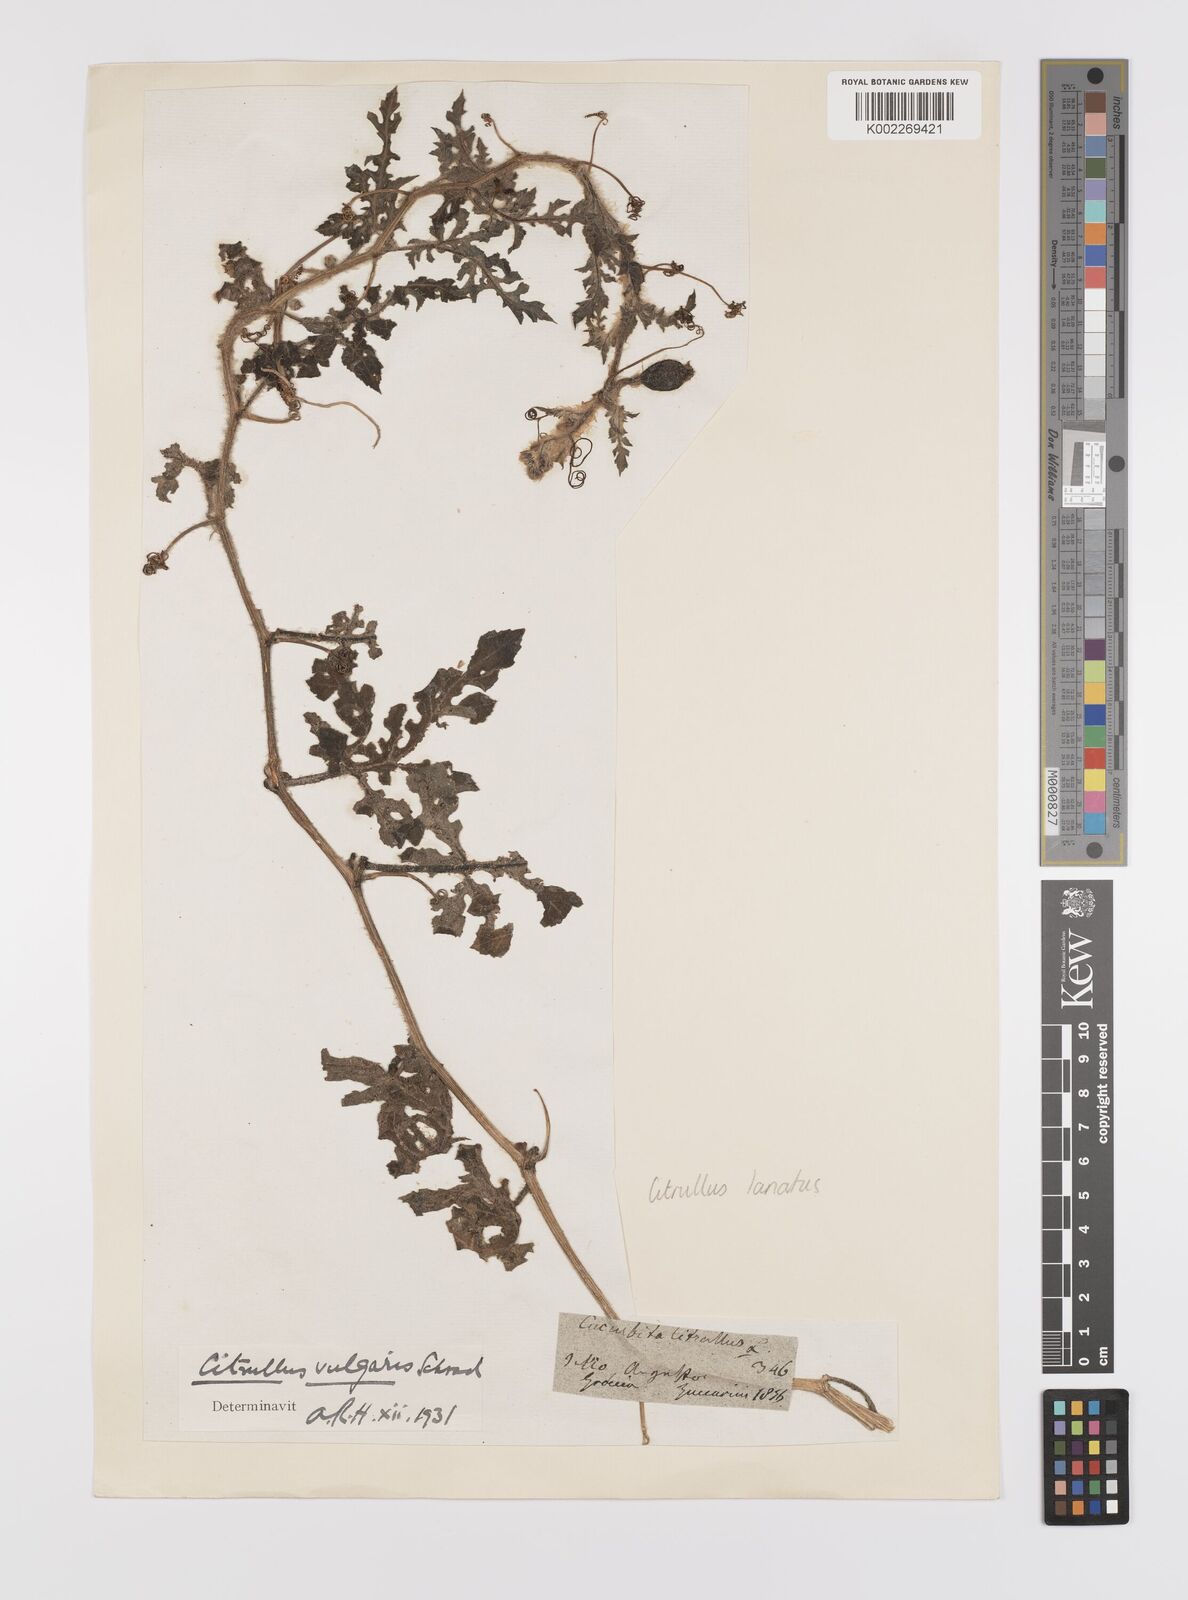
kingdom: Plantae
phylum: Tracheophyta
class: Magnoliopsida
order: Cucurbitales
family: Cucurbitaceae
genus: Citrullus
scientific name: Citrullus lanatus
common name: Watermelon
